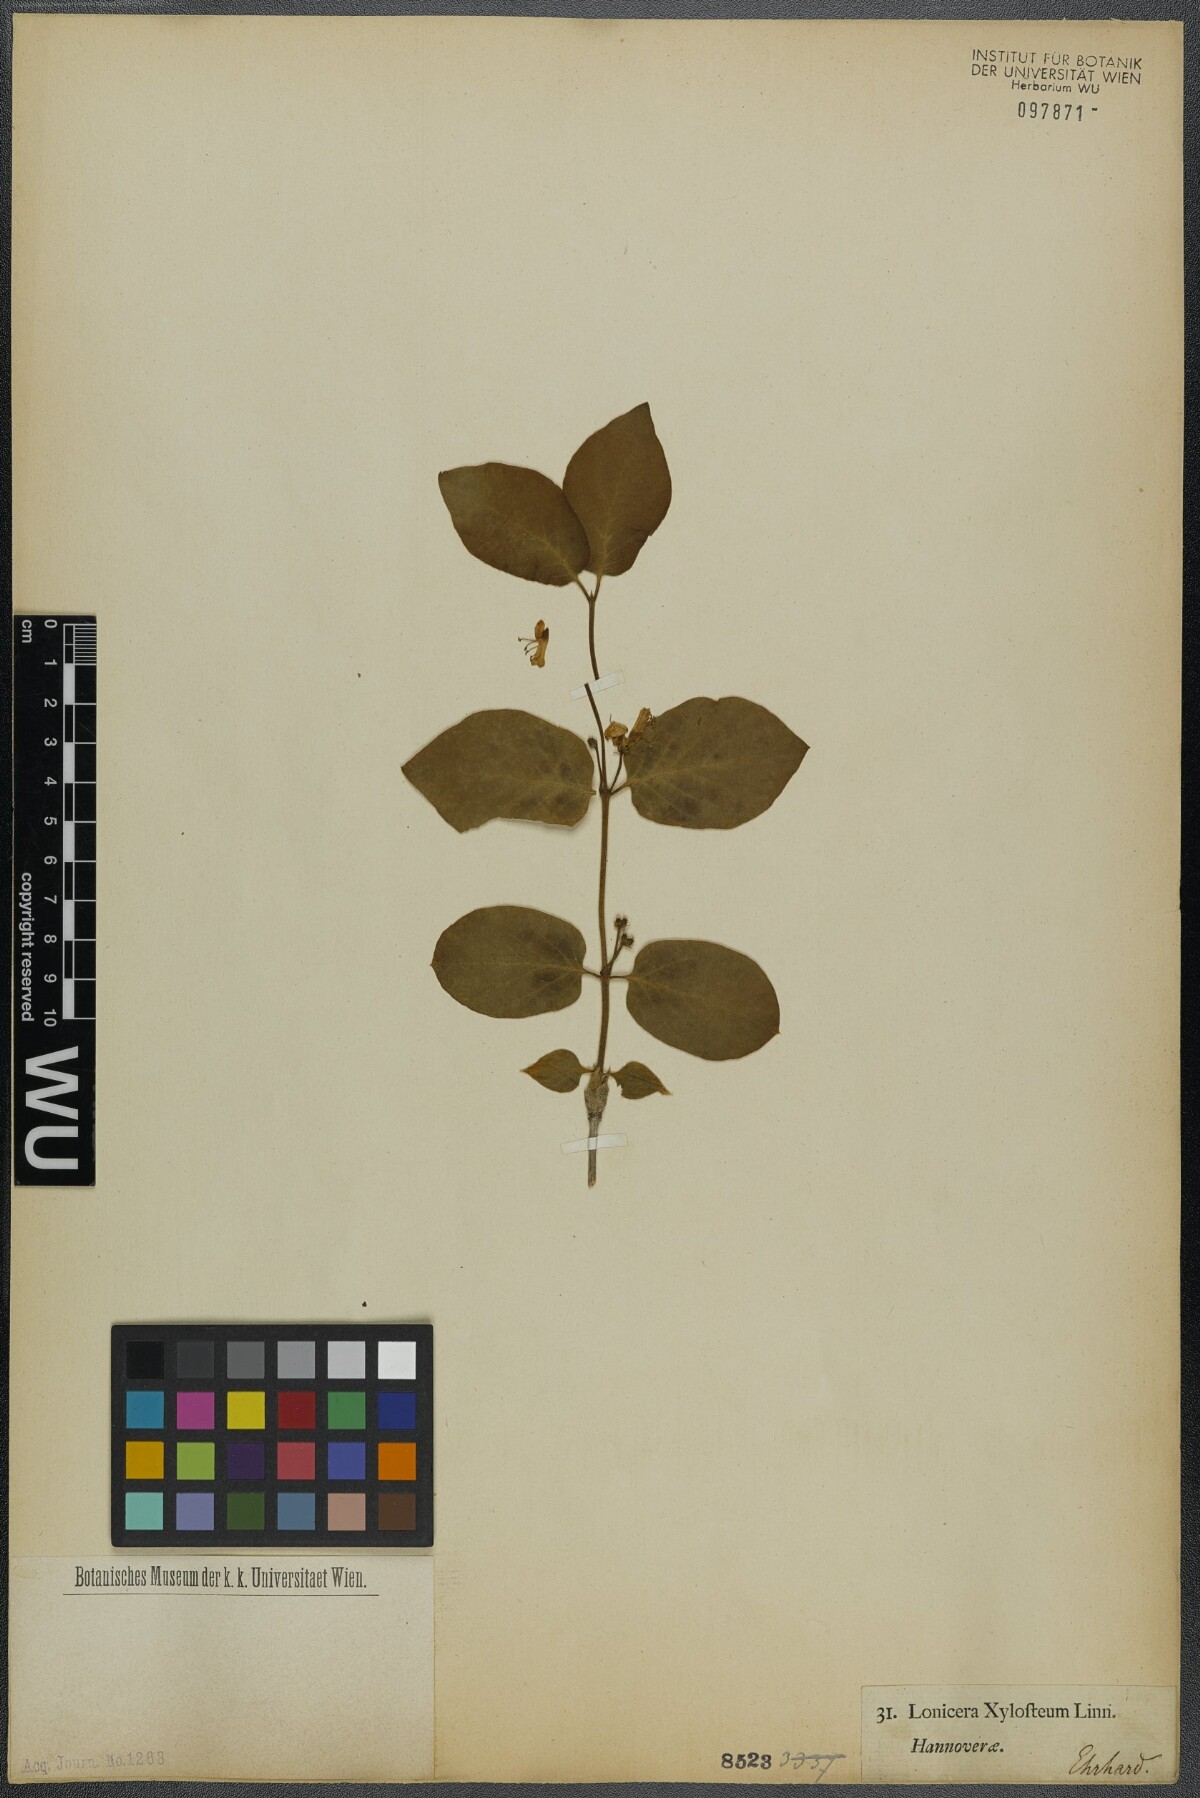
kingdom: Plantae
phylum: Tracheophyta
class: Magnoliopsida
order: Dipsacales
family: Caprifoliaceae
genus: Lonicera
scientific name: Lonicera xylosteum
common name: Fly honeysuckle
